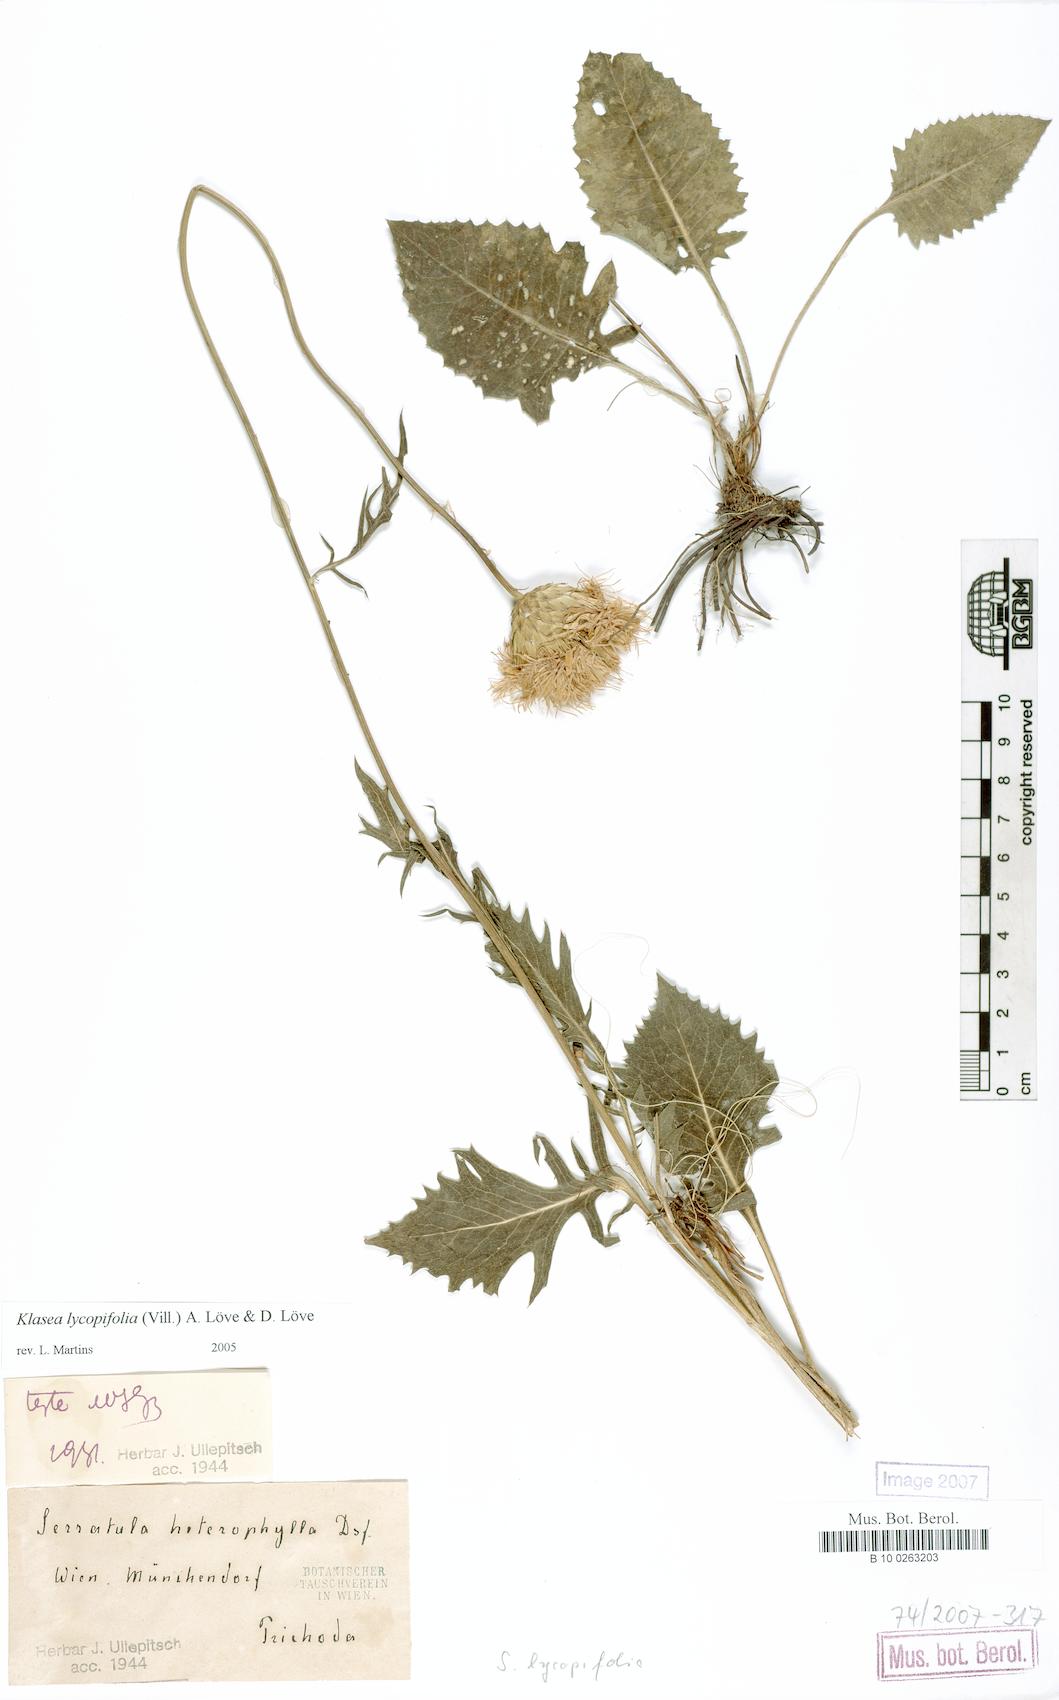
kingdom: Plantae
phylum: Tracheophyta
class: Magnoliopsida
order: Asterales
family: Asteraceae
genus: Klasea
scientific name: Klasea lycopifolia
